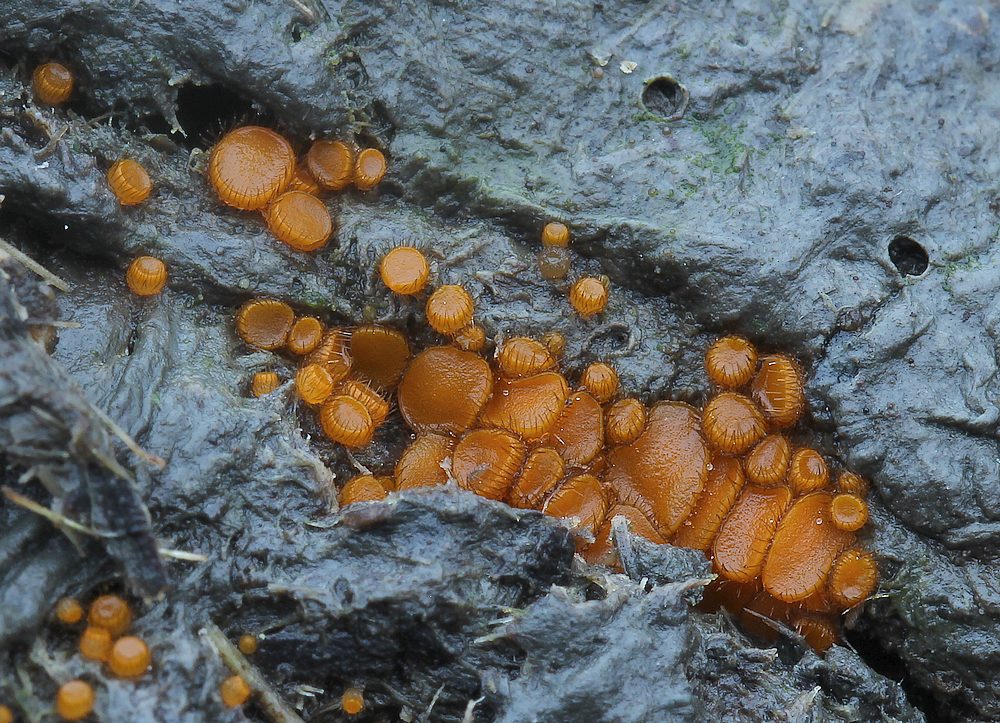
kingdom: Fungi
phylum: Ascomycota
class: Pezizomycetes
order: Pezizales
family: Pyronemataceae
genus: Cheilymenia
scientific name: Cheilymenia fimicola
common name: møg-hårbæger
